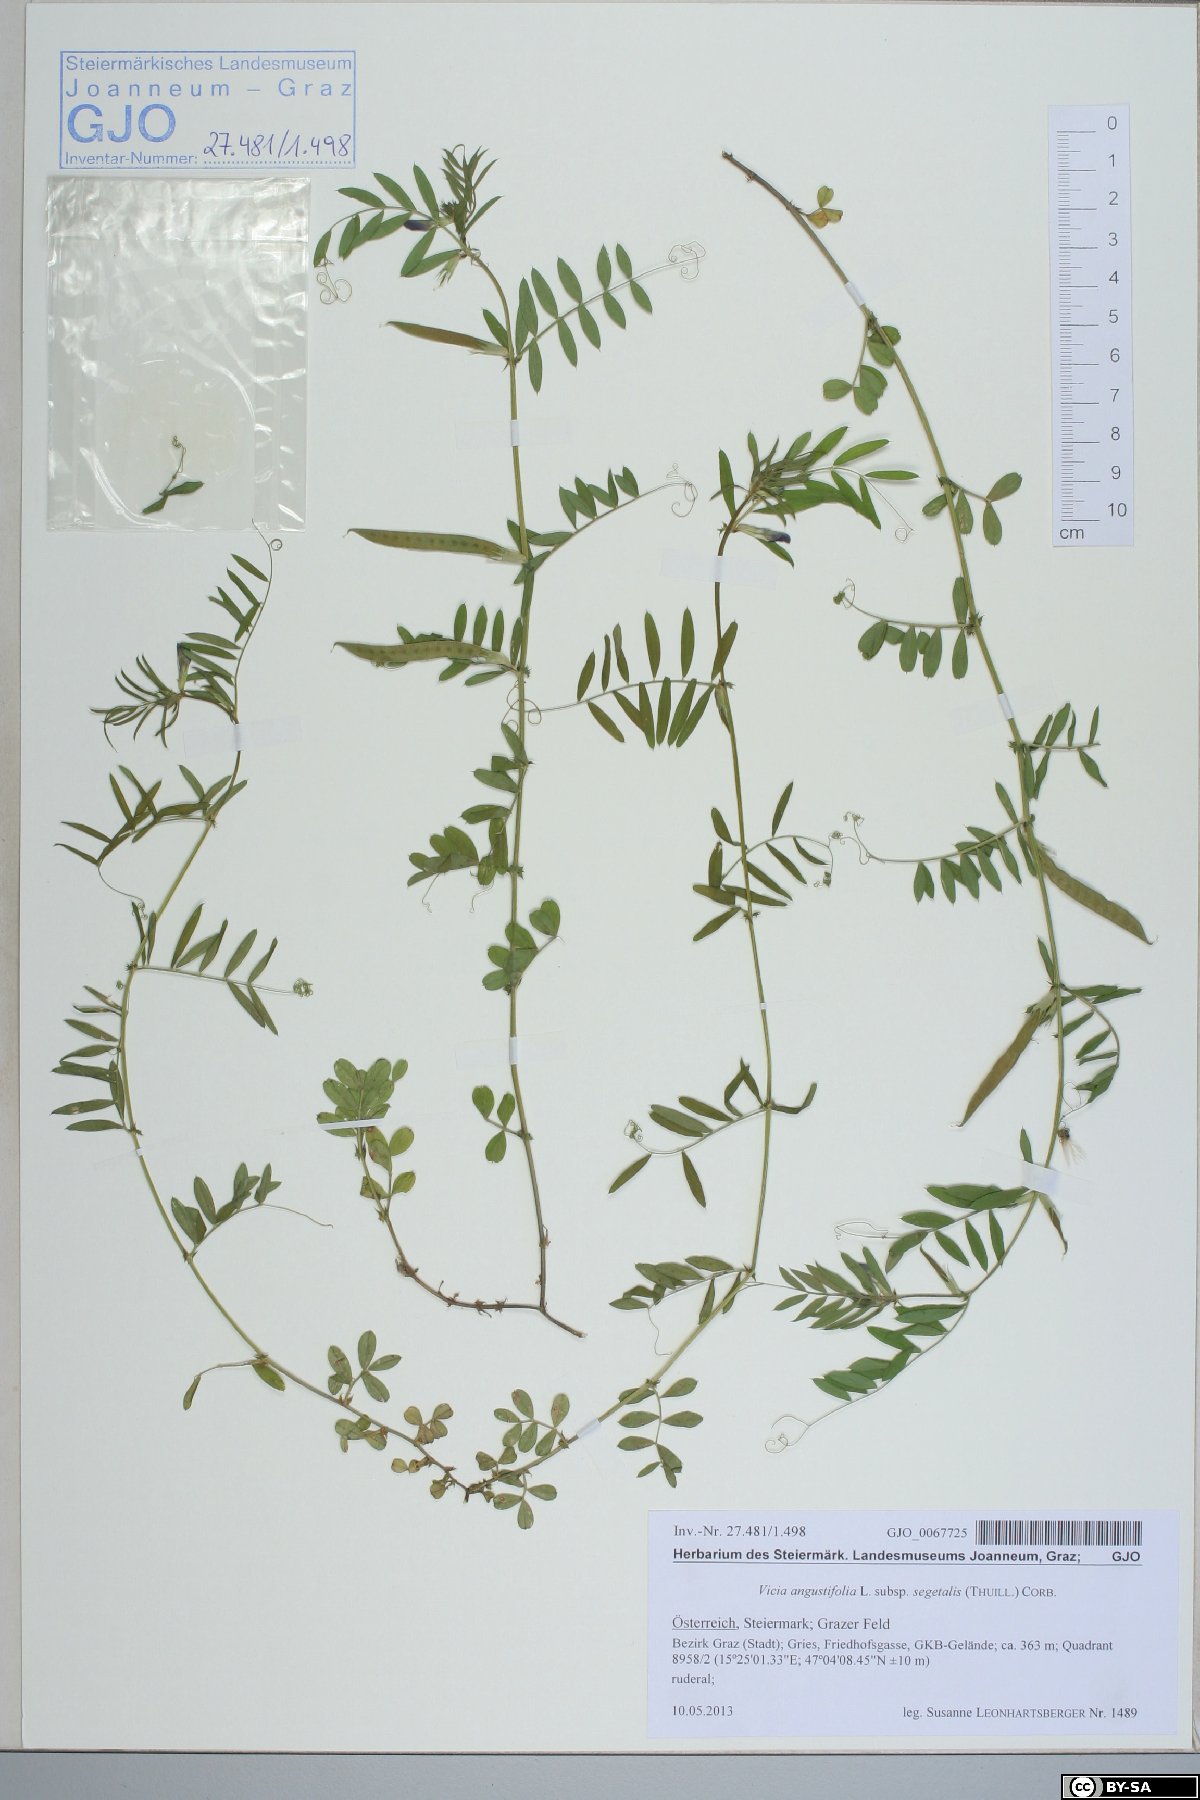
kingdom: Plantae
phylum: Tracheophyta
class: Magnoliopsida
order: Fabales
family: Fabaceae
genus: Vicia
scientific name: Vicia sativa
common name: Garden vetch
